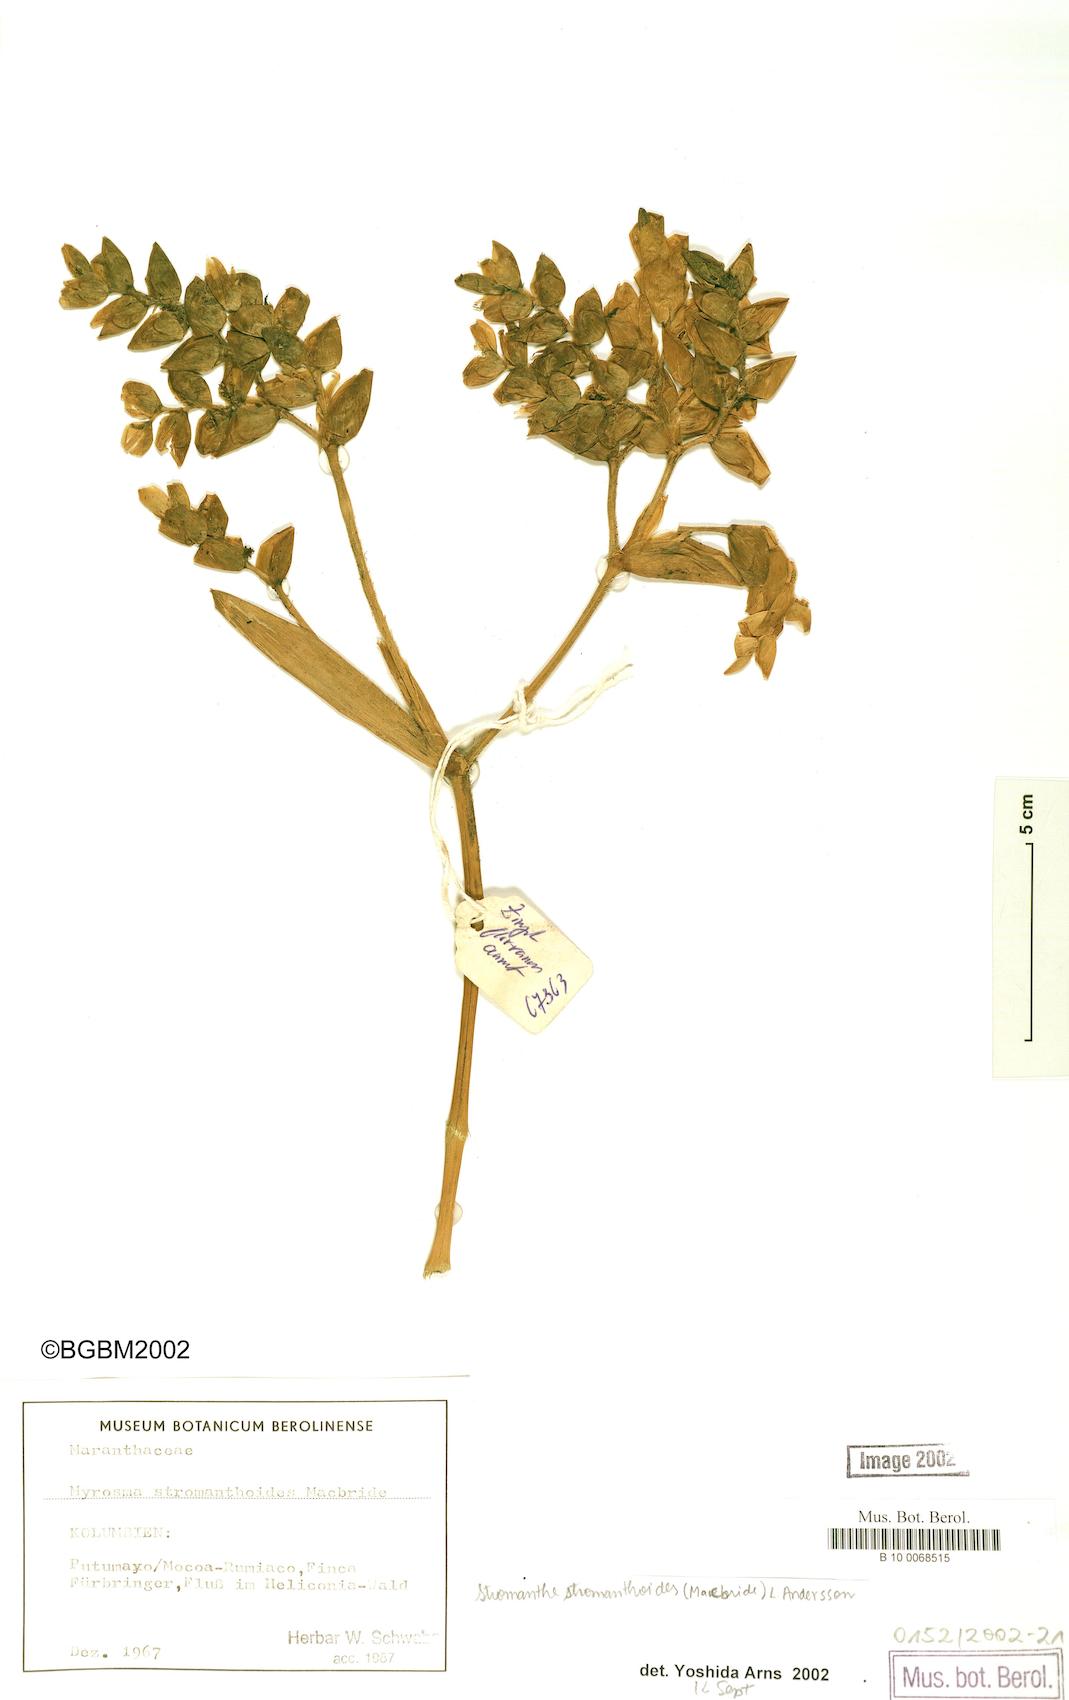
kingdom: Plantae
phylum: Tracheophyta
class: Liliopsida
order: Zingiberales
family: Marantaceae
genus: Stromanthe
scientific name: Stromanthe stromanthoides
